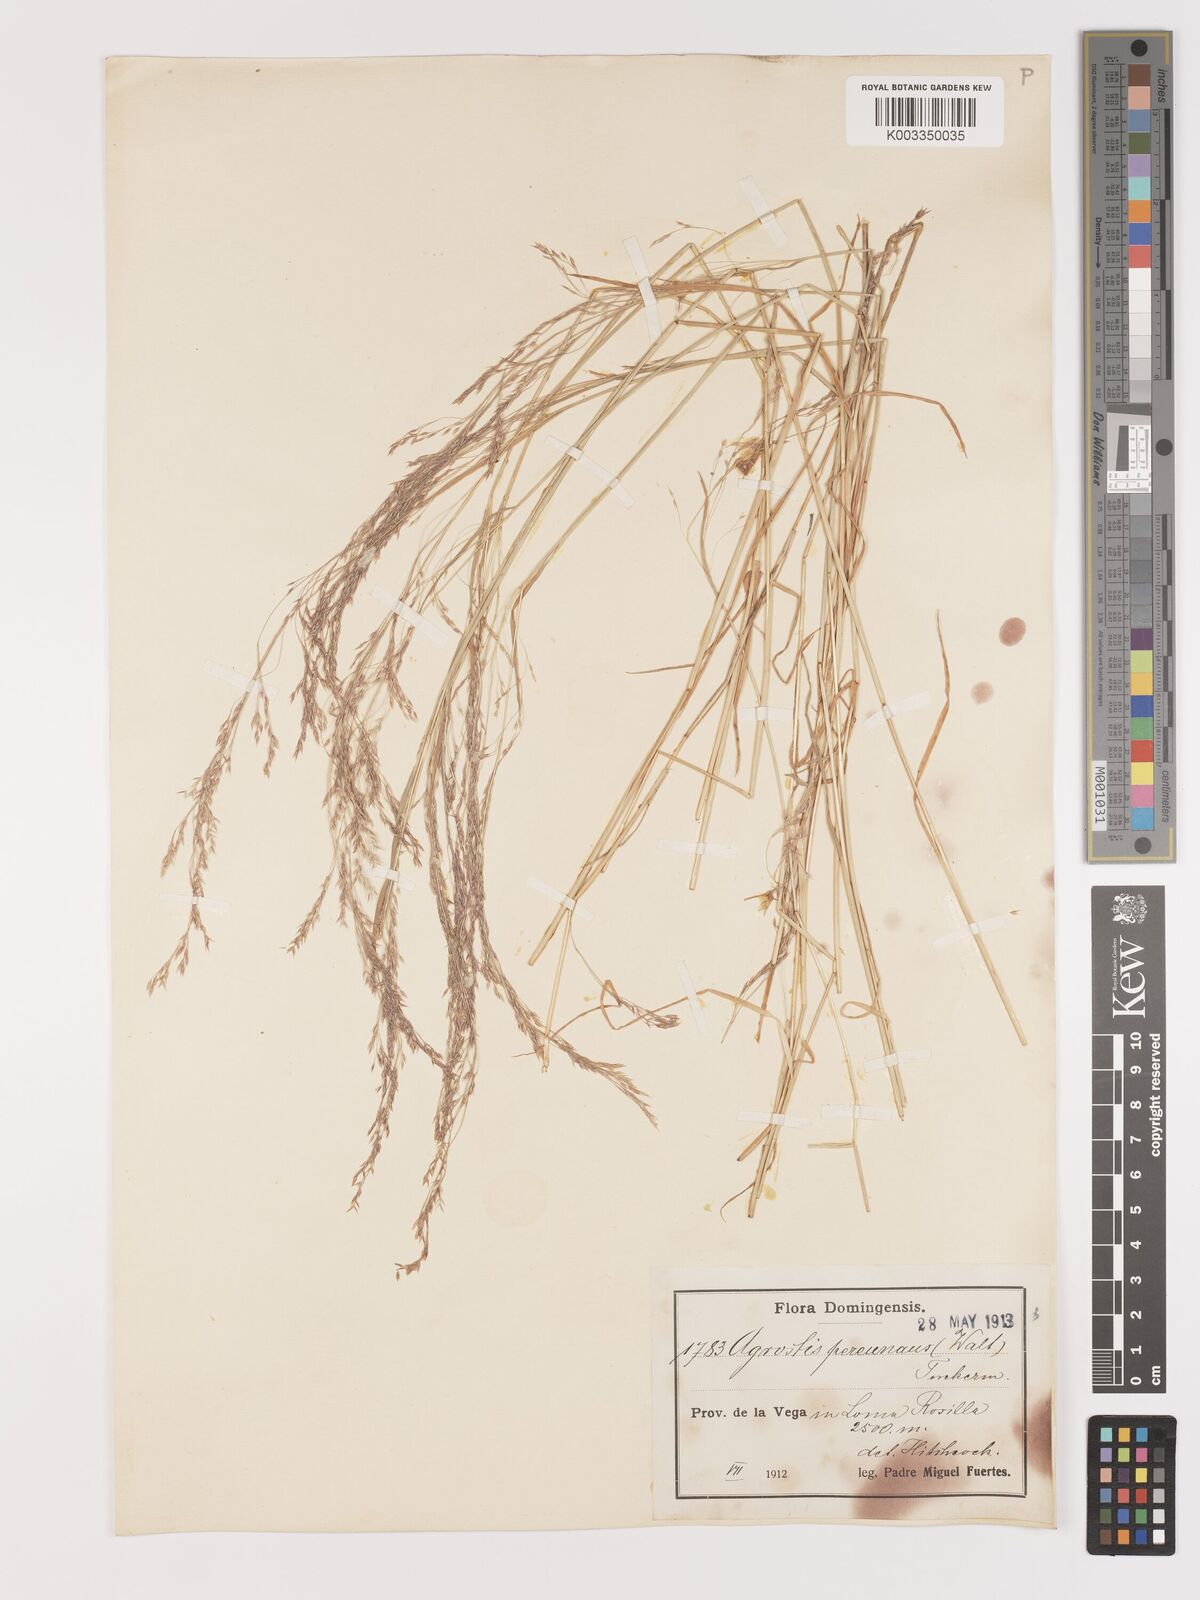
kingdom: Plantae
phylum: Tracheophyta
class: Liliopsida
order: Poales
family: Poaceae
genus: Agrostis
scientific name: Agrostis hyemalis
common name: Small bent
